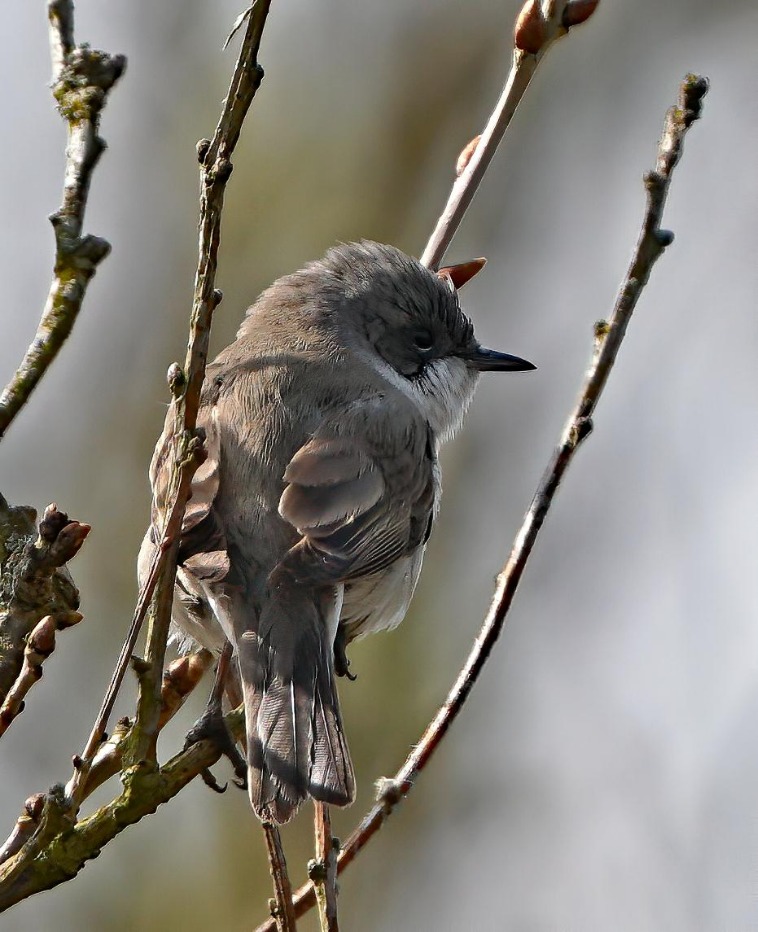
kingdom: Animalia
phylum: Chordata
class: Aves
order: Passeriformes
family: Sylviidae
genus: Sylvia
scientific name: Sylvia curruca
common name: Gærdesanger
